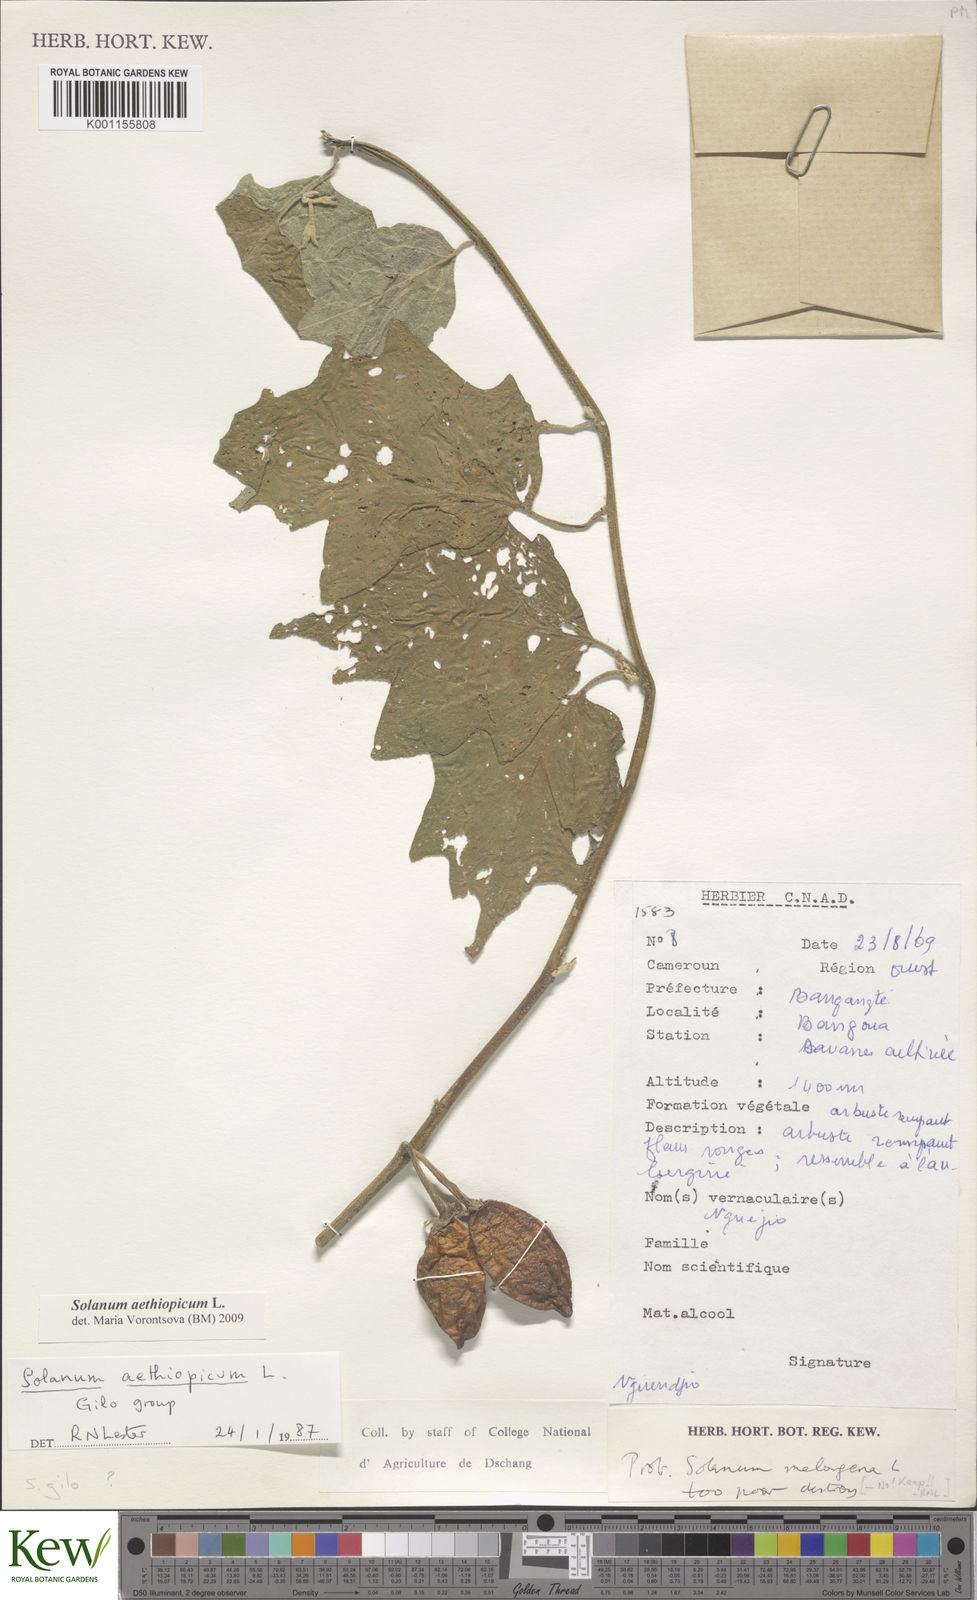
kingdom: Plantae
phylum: Tracheophyta
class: Magnoliopsida
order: Solanales
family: Solanaceae
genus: Solanum
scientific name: Solanum aethiopicum
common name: Gilo
